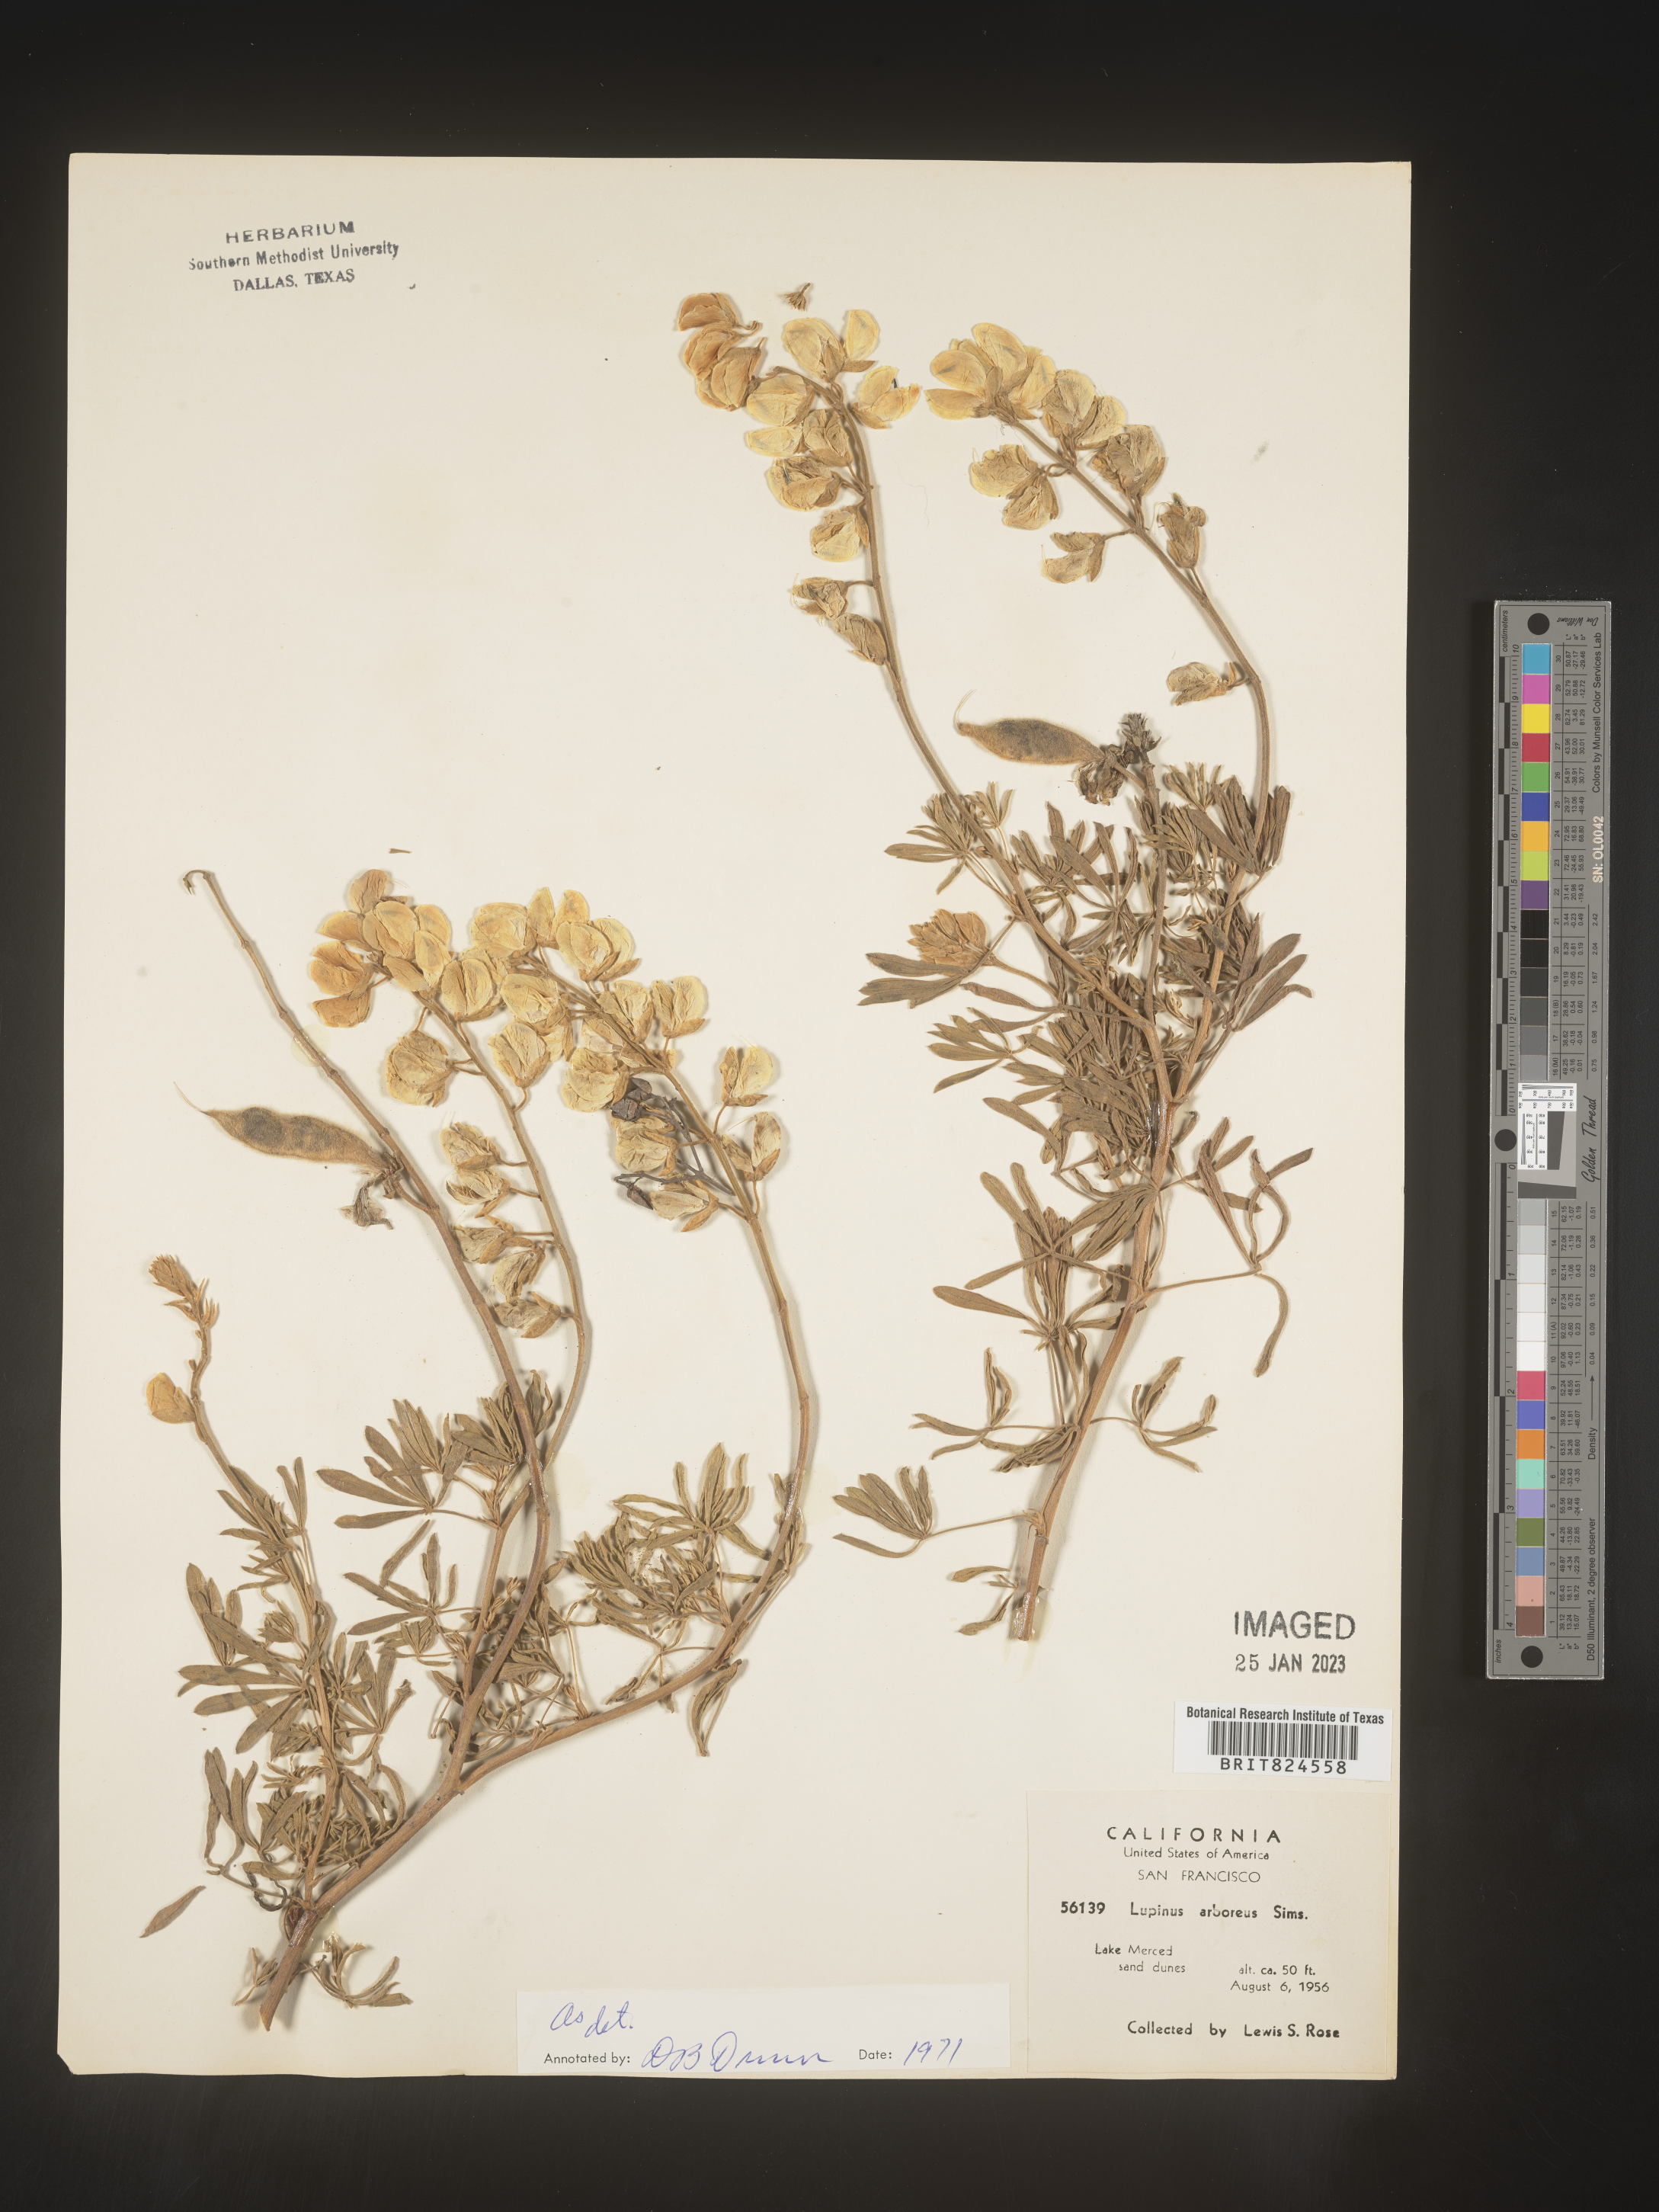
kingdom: Plantae
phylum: Tracheophyta
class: Magnoliopsida
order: Fabales
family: Fabaceae
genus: Lupinus
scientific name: Lupinus arboreus
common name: Yellow bush lupine
